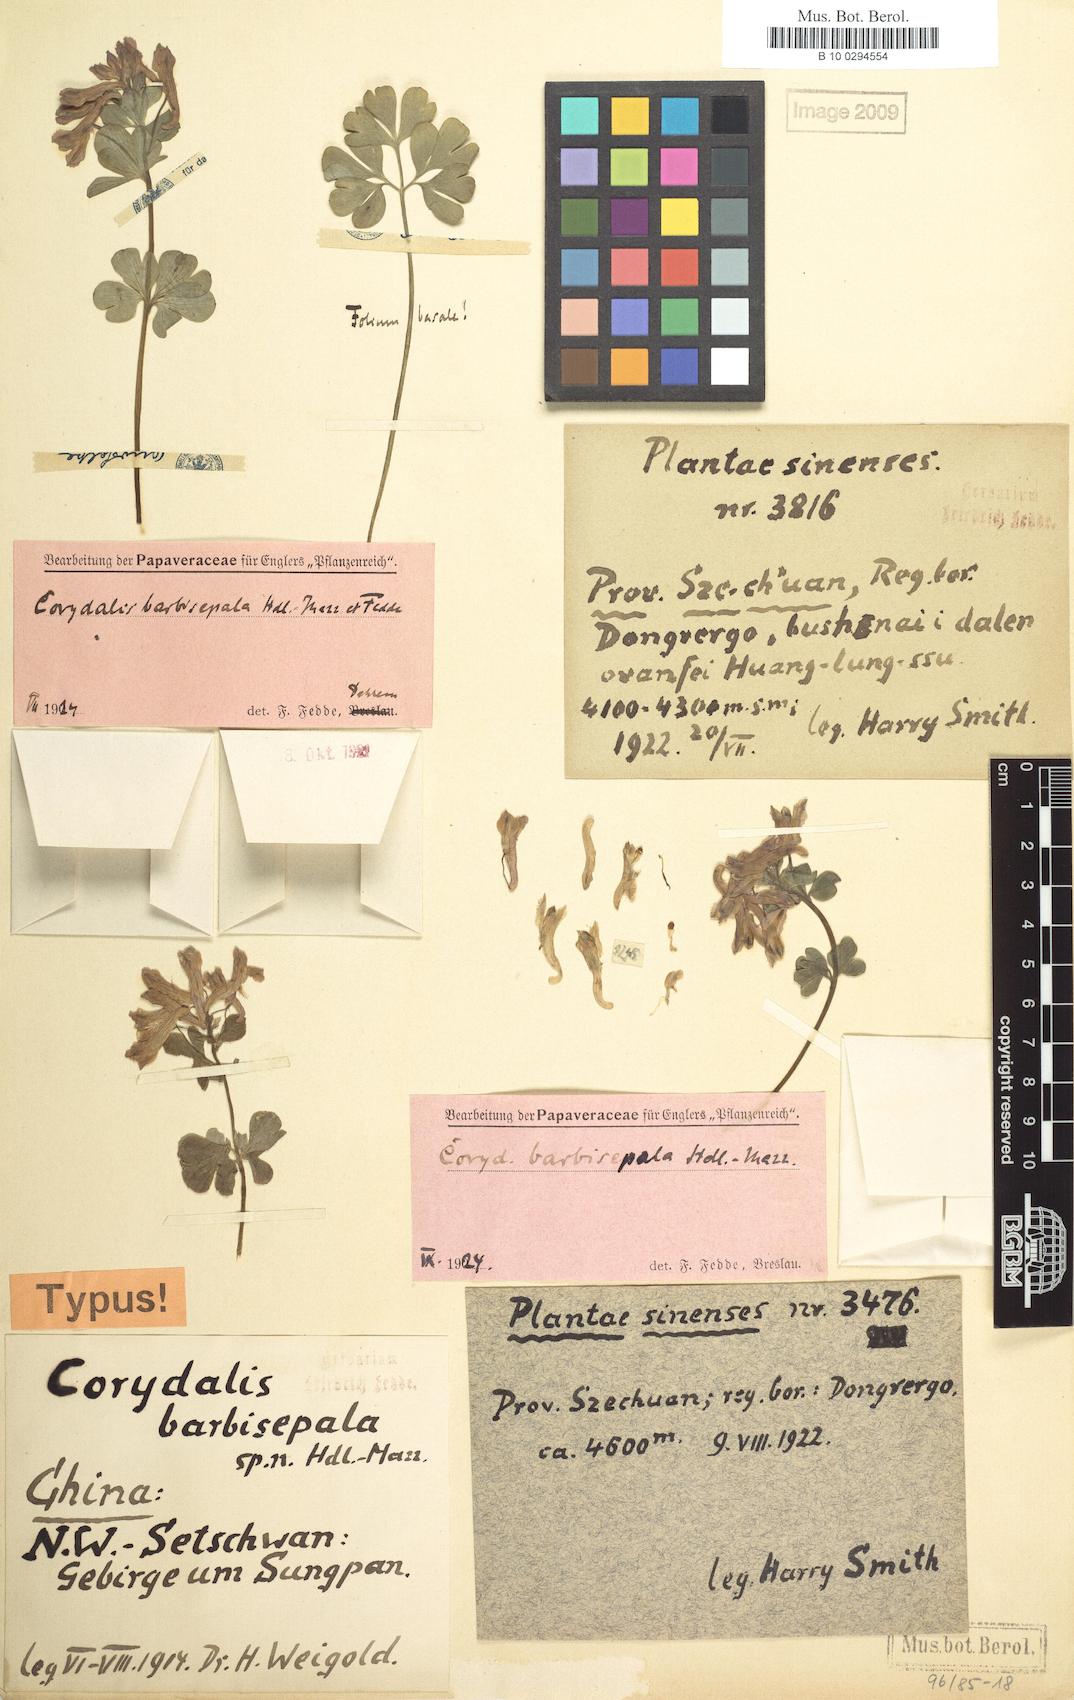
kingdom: Plantae
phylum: Tracheophyta
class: Magnoliopsida
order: Ranunculales
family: Papaveraceae
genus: Corydalis
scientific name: Corydalis barbisepala
